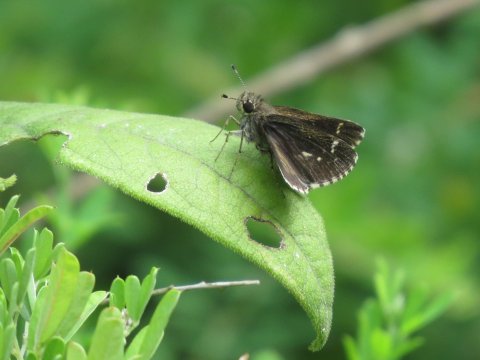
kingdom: Animalia
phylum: Arthropoda
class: Insecta
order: Lepidoptera
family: Hesperiidae
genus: Mastor
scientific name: Mastor celia
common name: Bell's Roadside-Skipper
